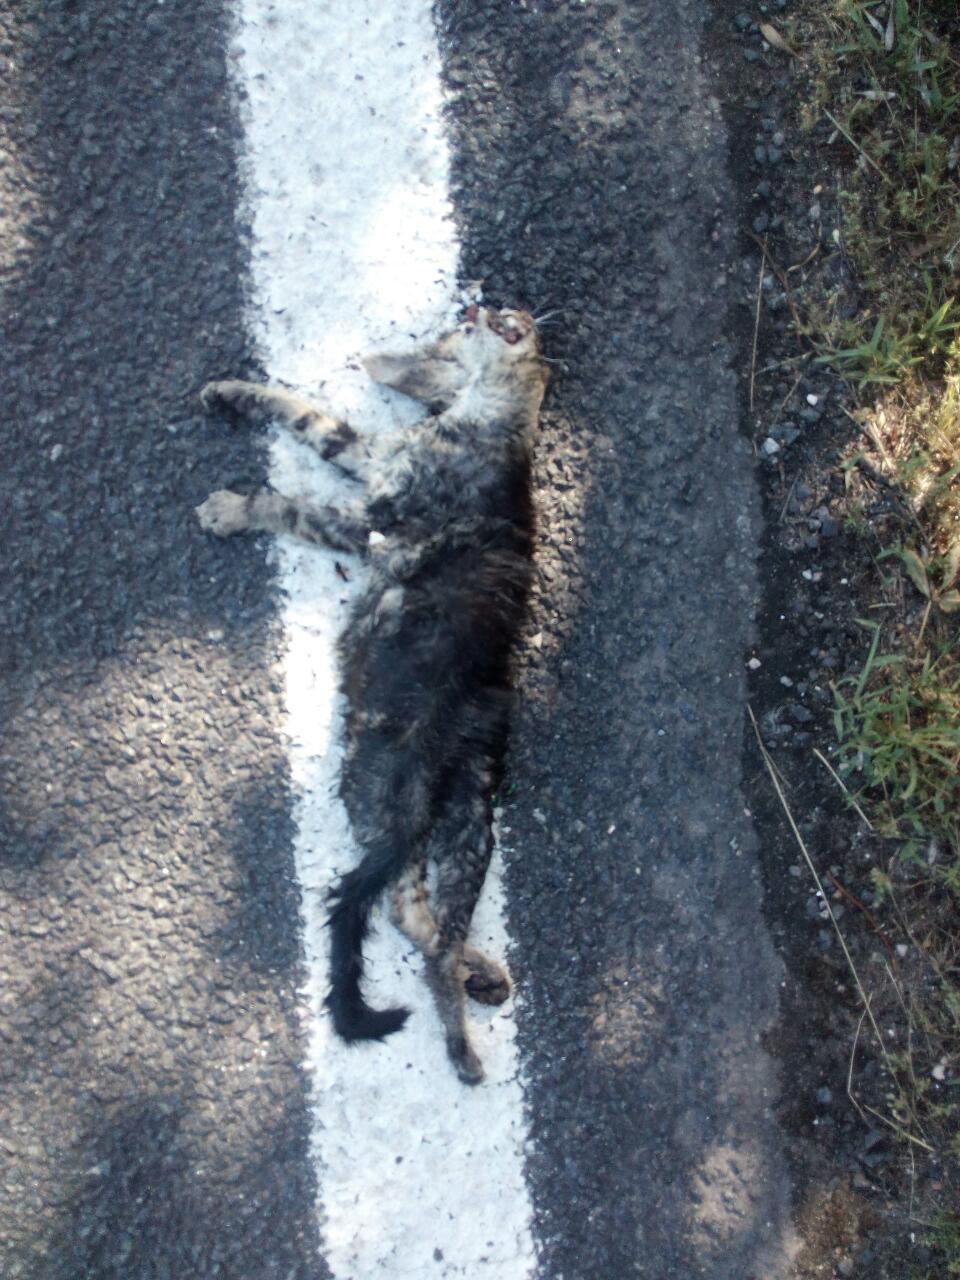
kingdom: Animalia
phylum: Chordata
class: Mammalia
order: Carnivora
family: Felidae
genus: Felis
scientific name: Felis catus
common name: Domestic cat
